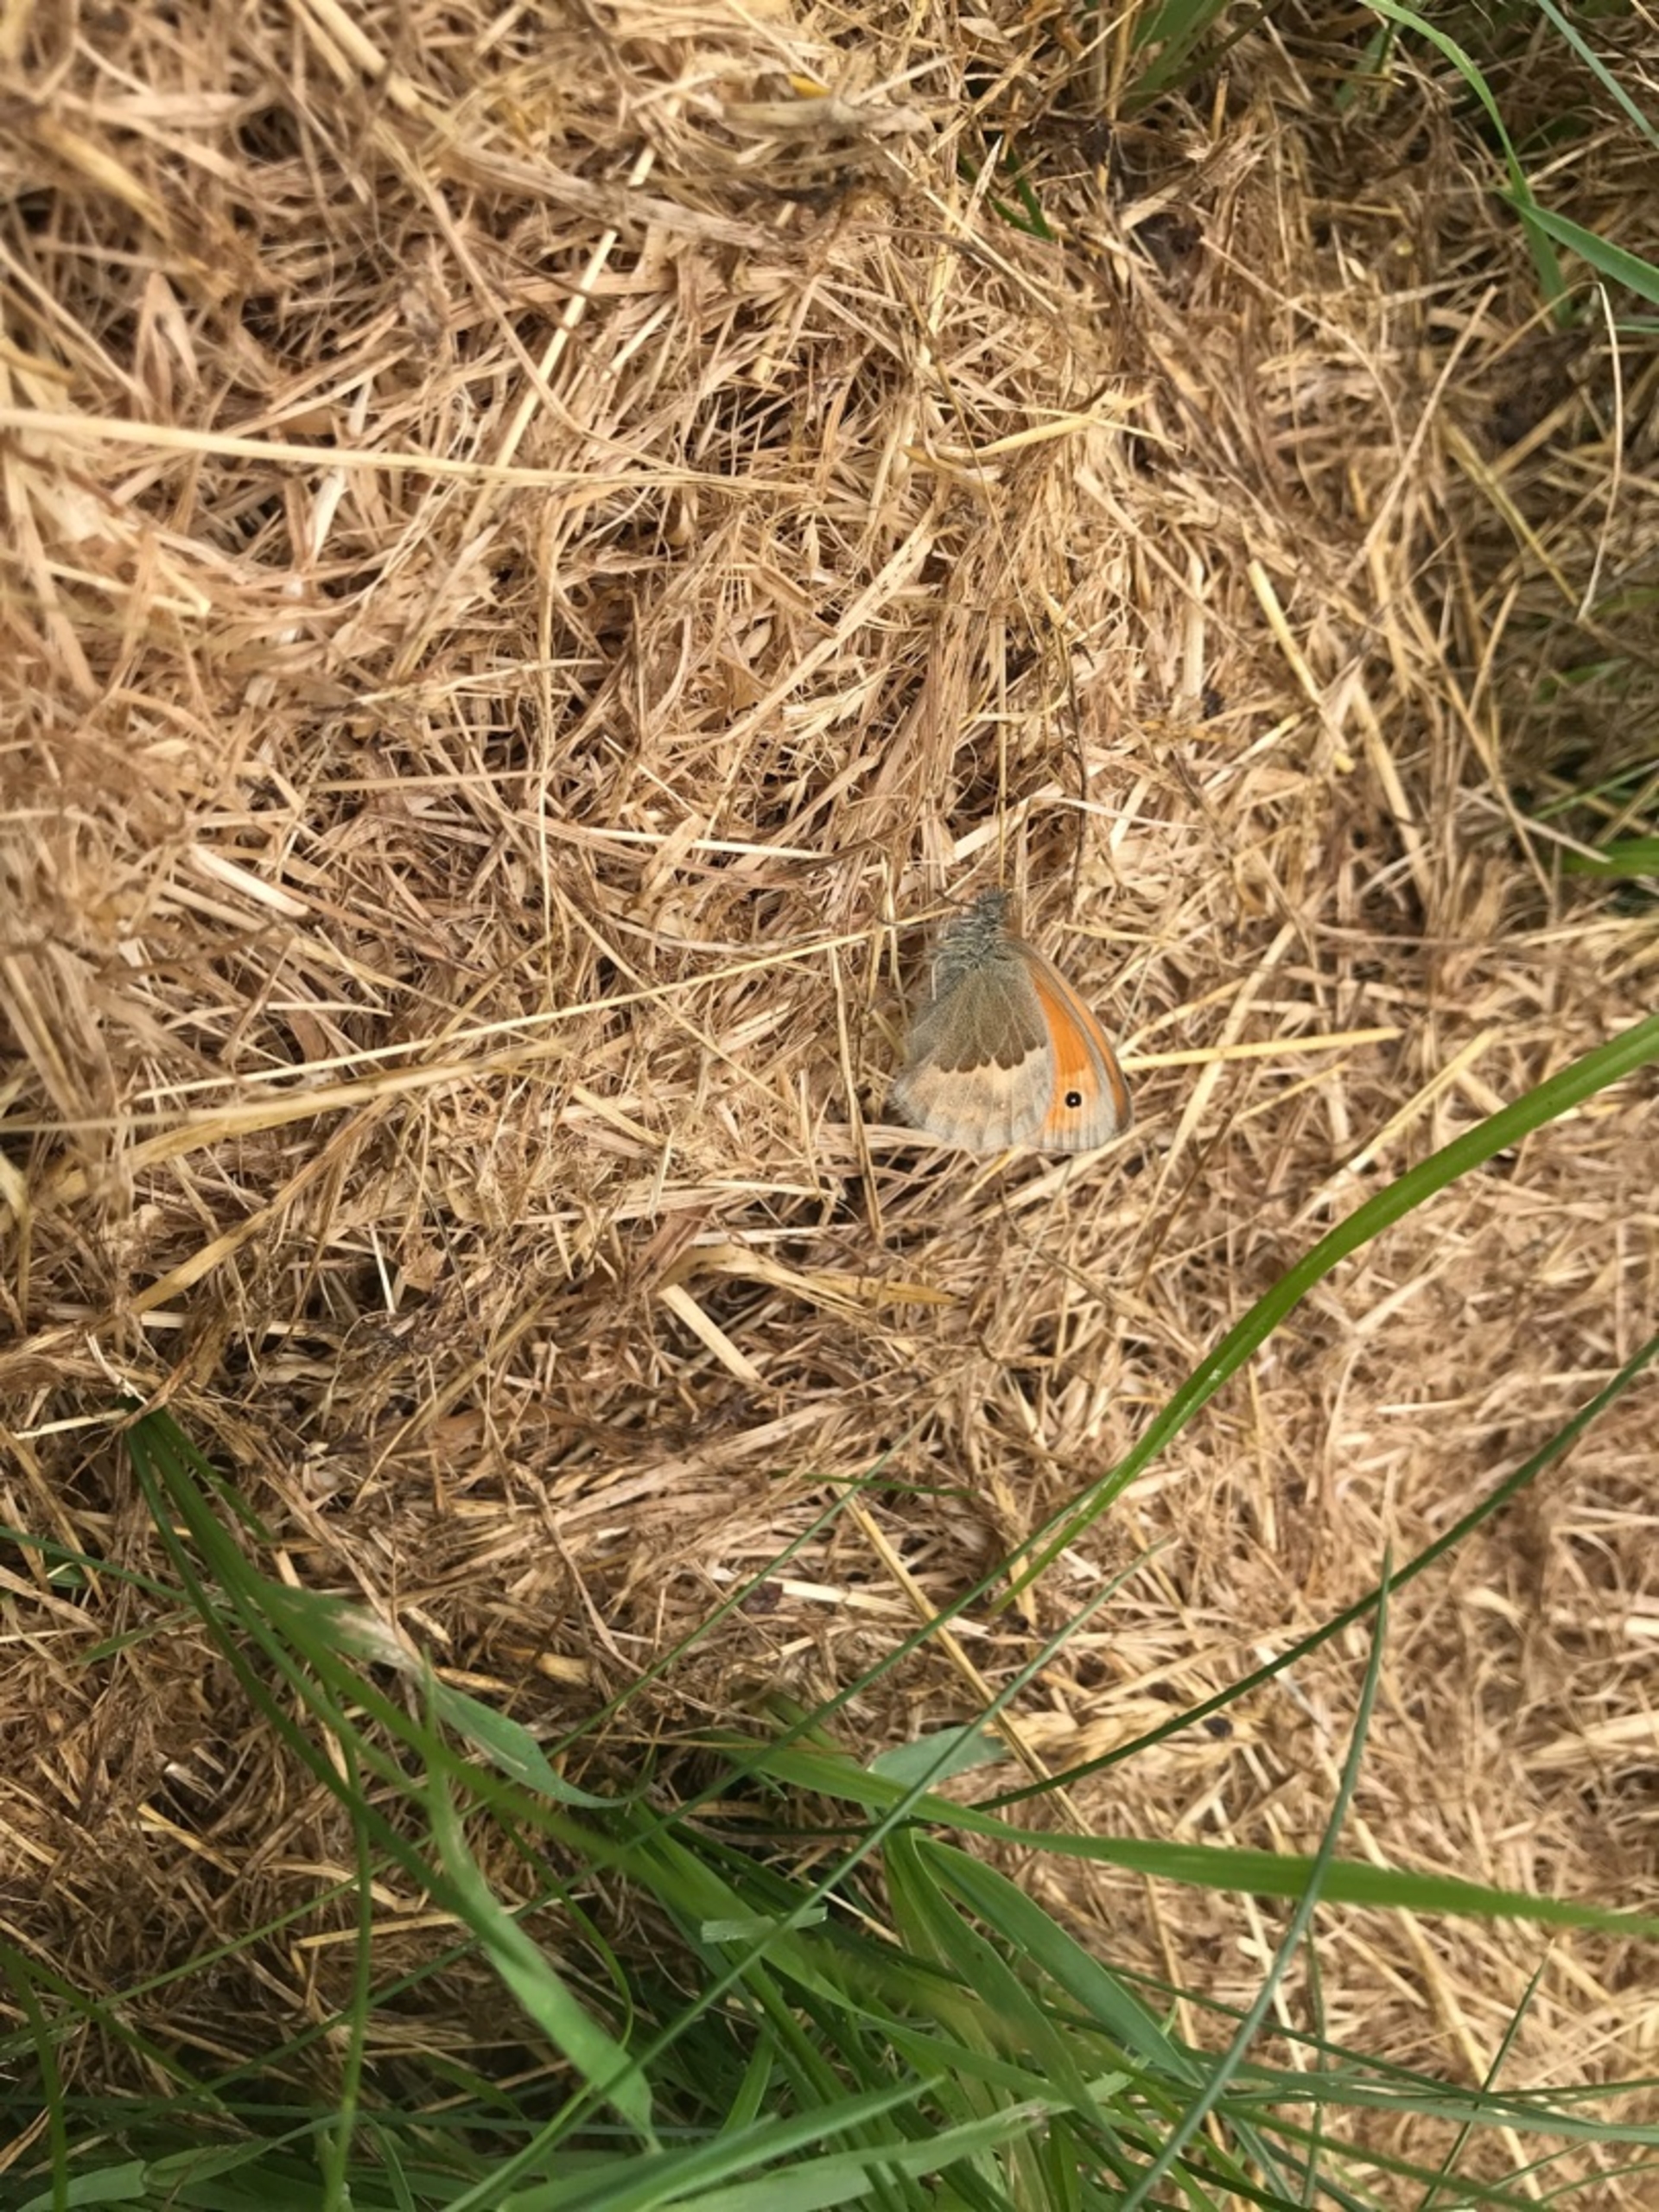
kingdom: Animalia
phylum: Arthropoda
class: Insecta
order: Lepidoptera
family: Nymphalidae
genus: Coenonympha
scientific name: Coenonympha pamphilus
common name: Okkergul randøje
